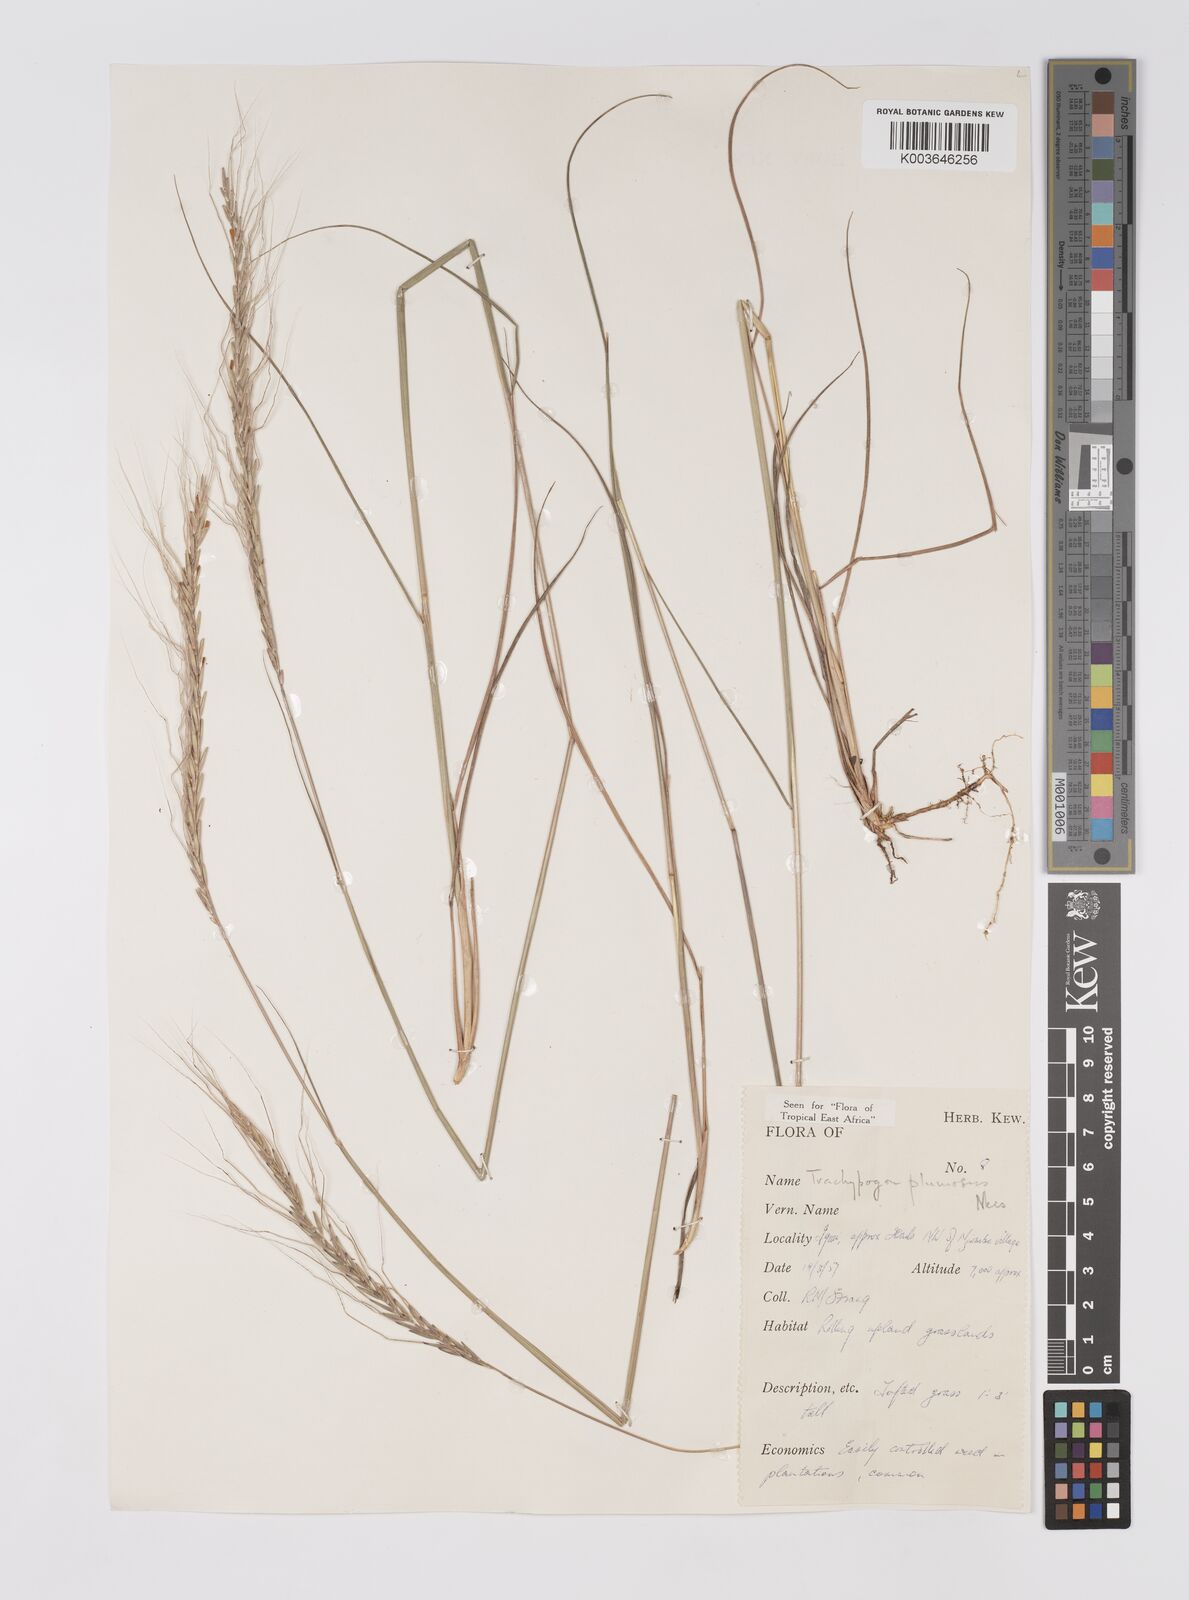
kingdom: Plantae
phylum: Tracheophyta
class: Liliopsida
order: Poales
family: Poaceae
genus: Trachypogon
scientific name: Trachypogon spicatus
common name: Crinkle-awn
